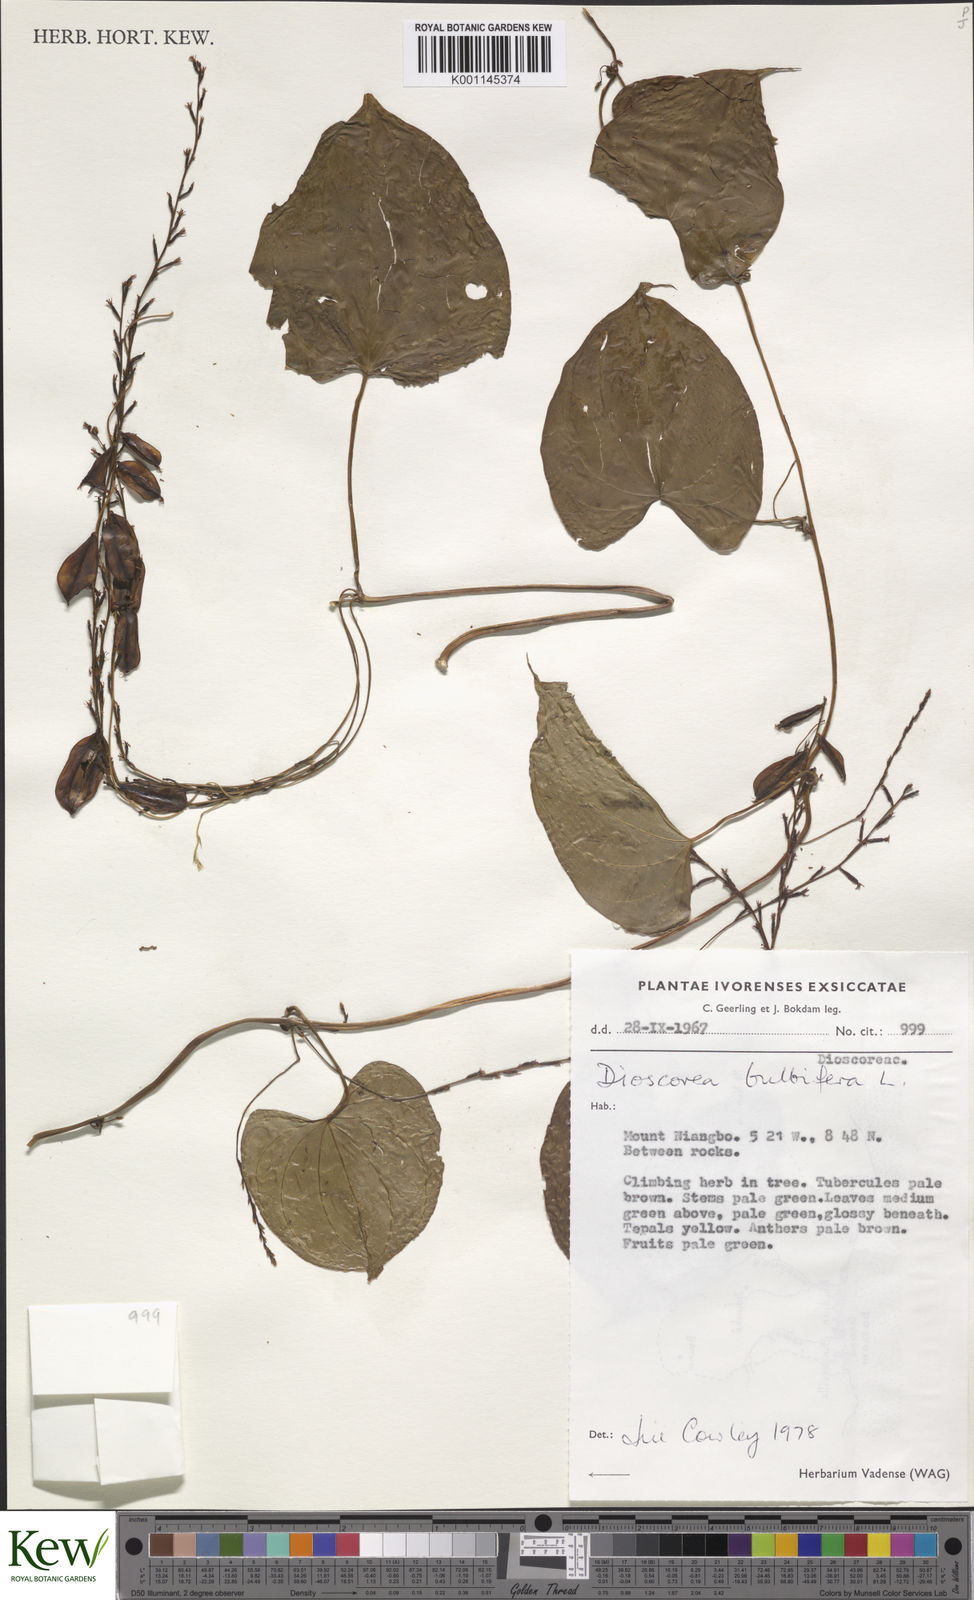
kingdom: Plantae
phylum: Tracheophyta
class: Liliopsida
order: Dioscoreales
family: Dioscoreaceae
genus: Dioscorea
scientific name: Dioscorea bulbifera
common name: Air yam
